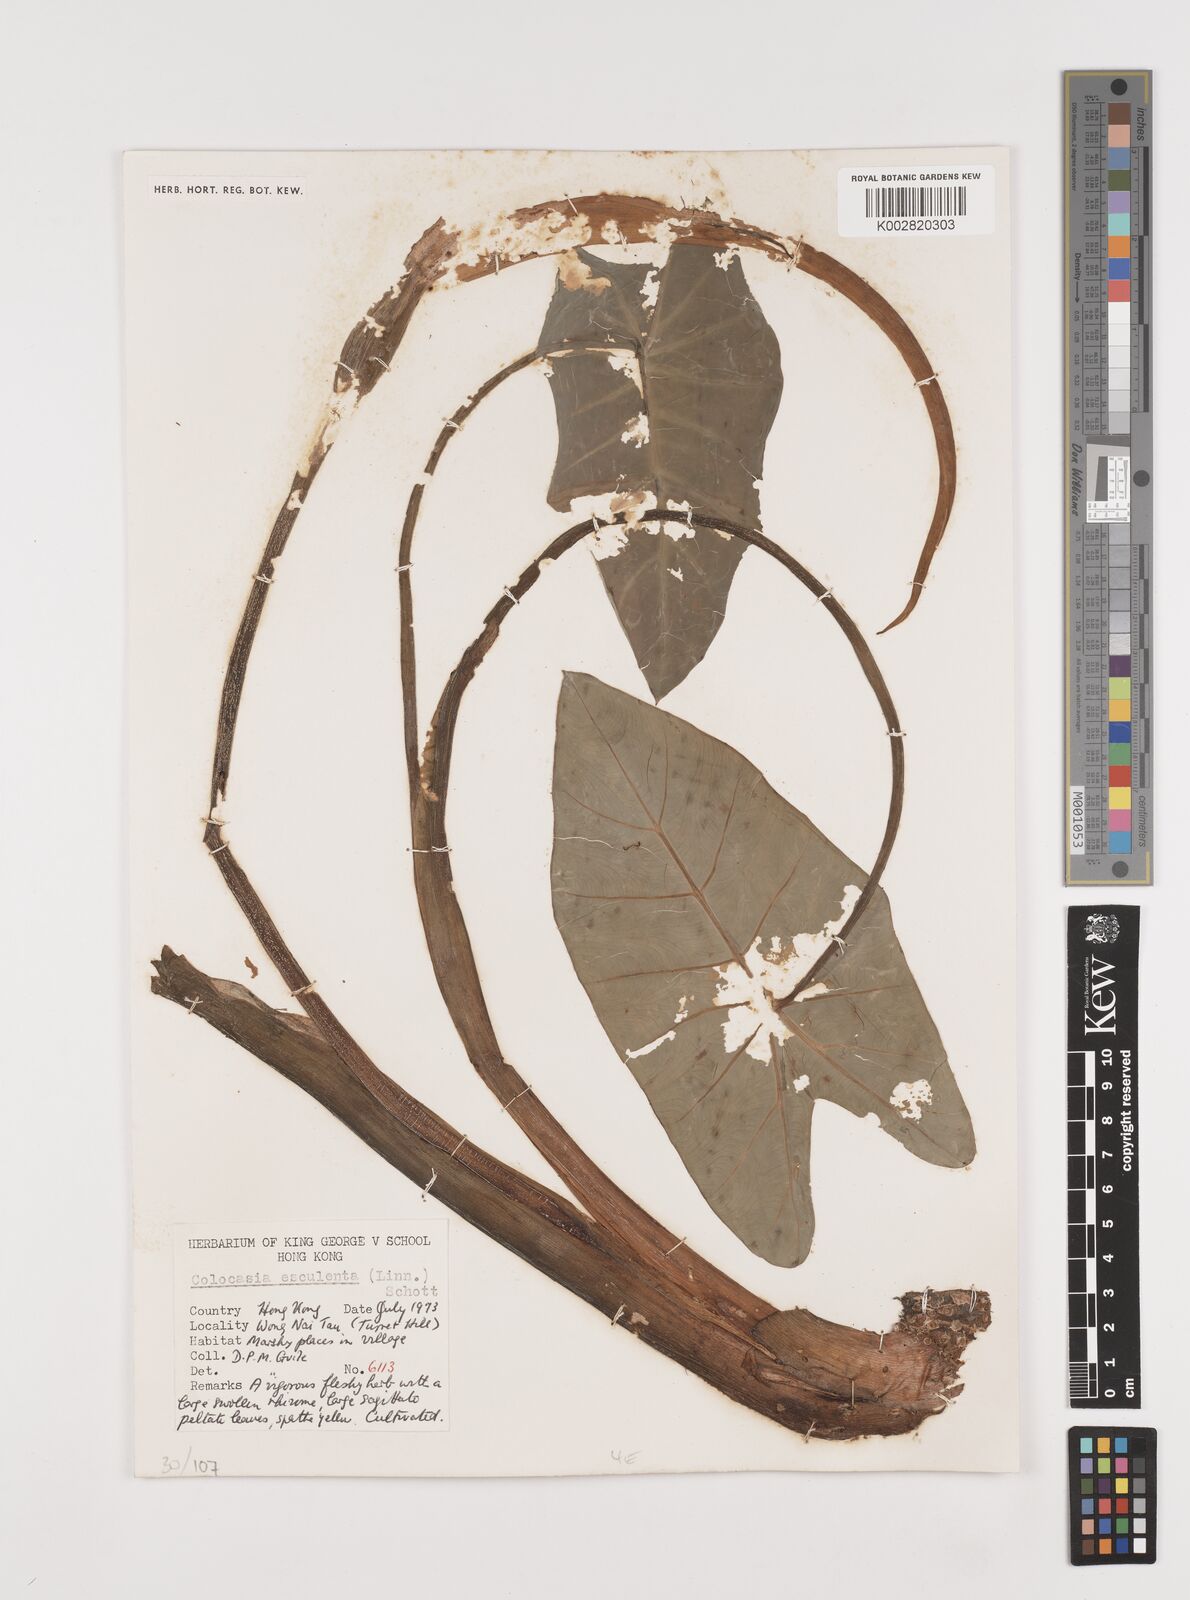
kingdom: Plantae
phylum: Tracheophyta
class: Liliopsida
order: Alismatales
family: Araceae
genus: Colocasia
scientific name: Colocasia esculenta
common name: Taro
